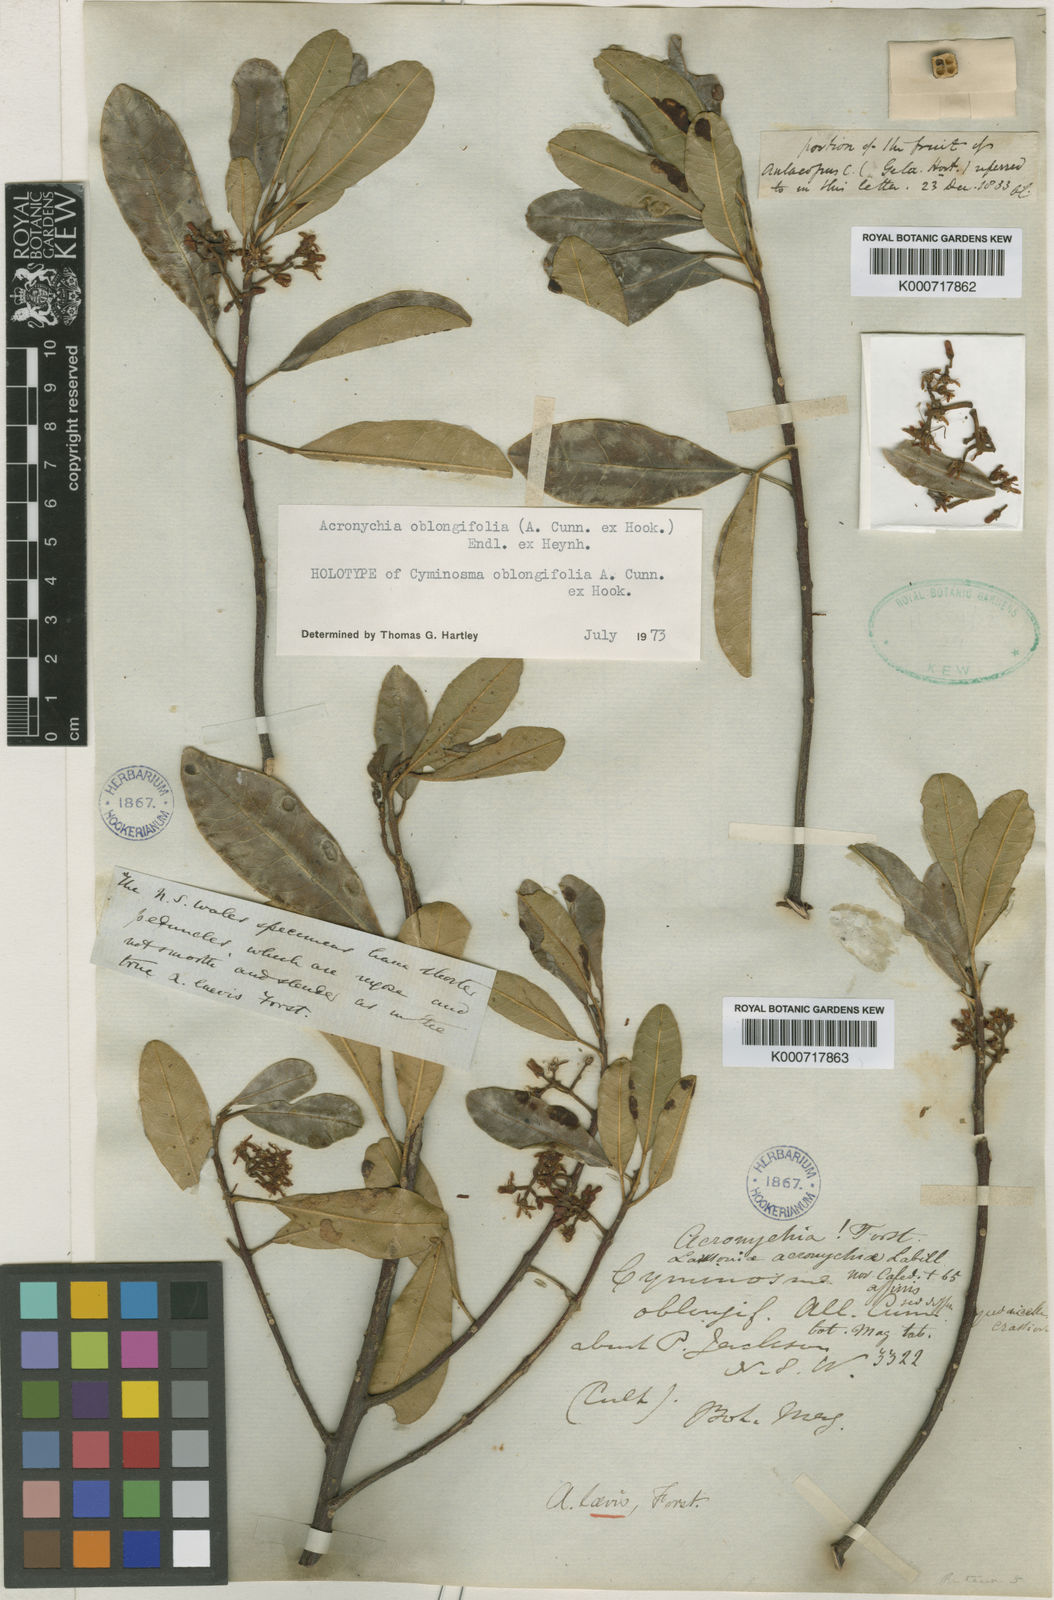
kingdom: Plantae
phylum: Tracheophyta
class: Magnoliopsida
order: Sapindales
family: Rutaceae
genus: Acronychia
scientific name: Acronychia oblongifolia
